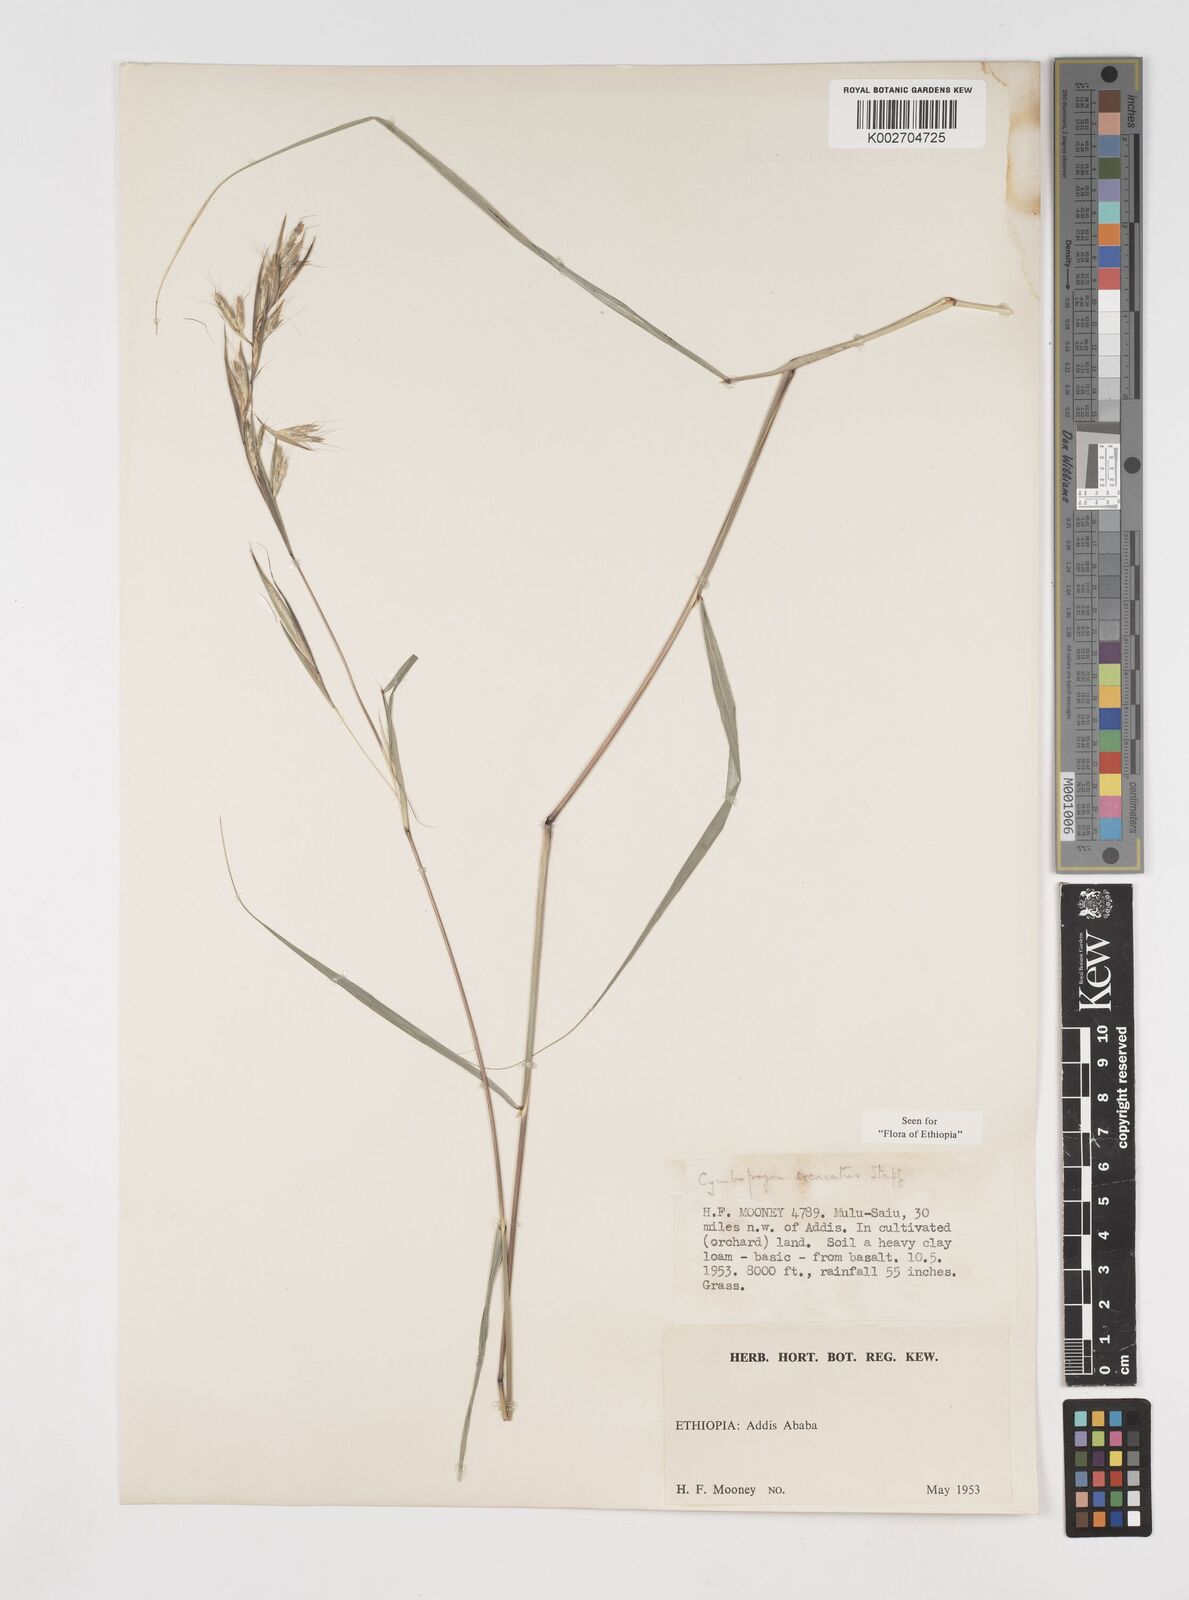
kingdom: Plantae
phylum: Tracheophyta
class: Liliopsida
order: Poales
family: Poaceae
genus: Cymbopogon
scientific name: Cymbopogon caesius
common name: Kachi grass
